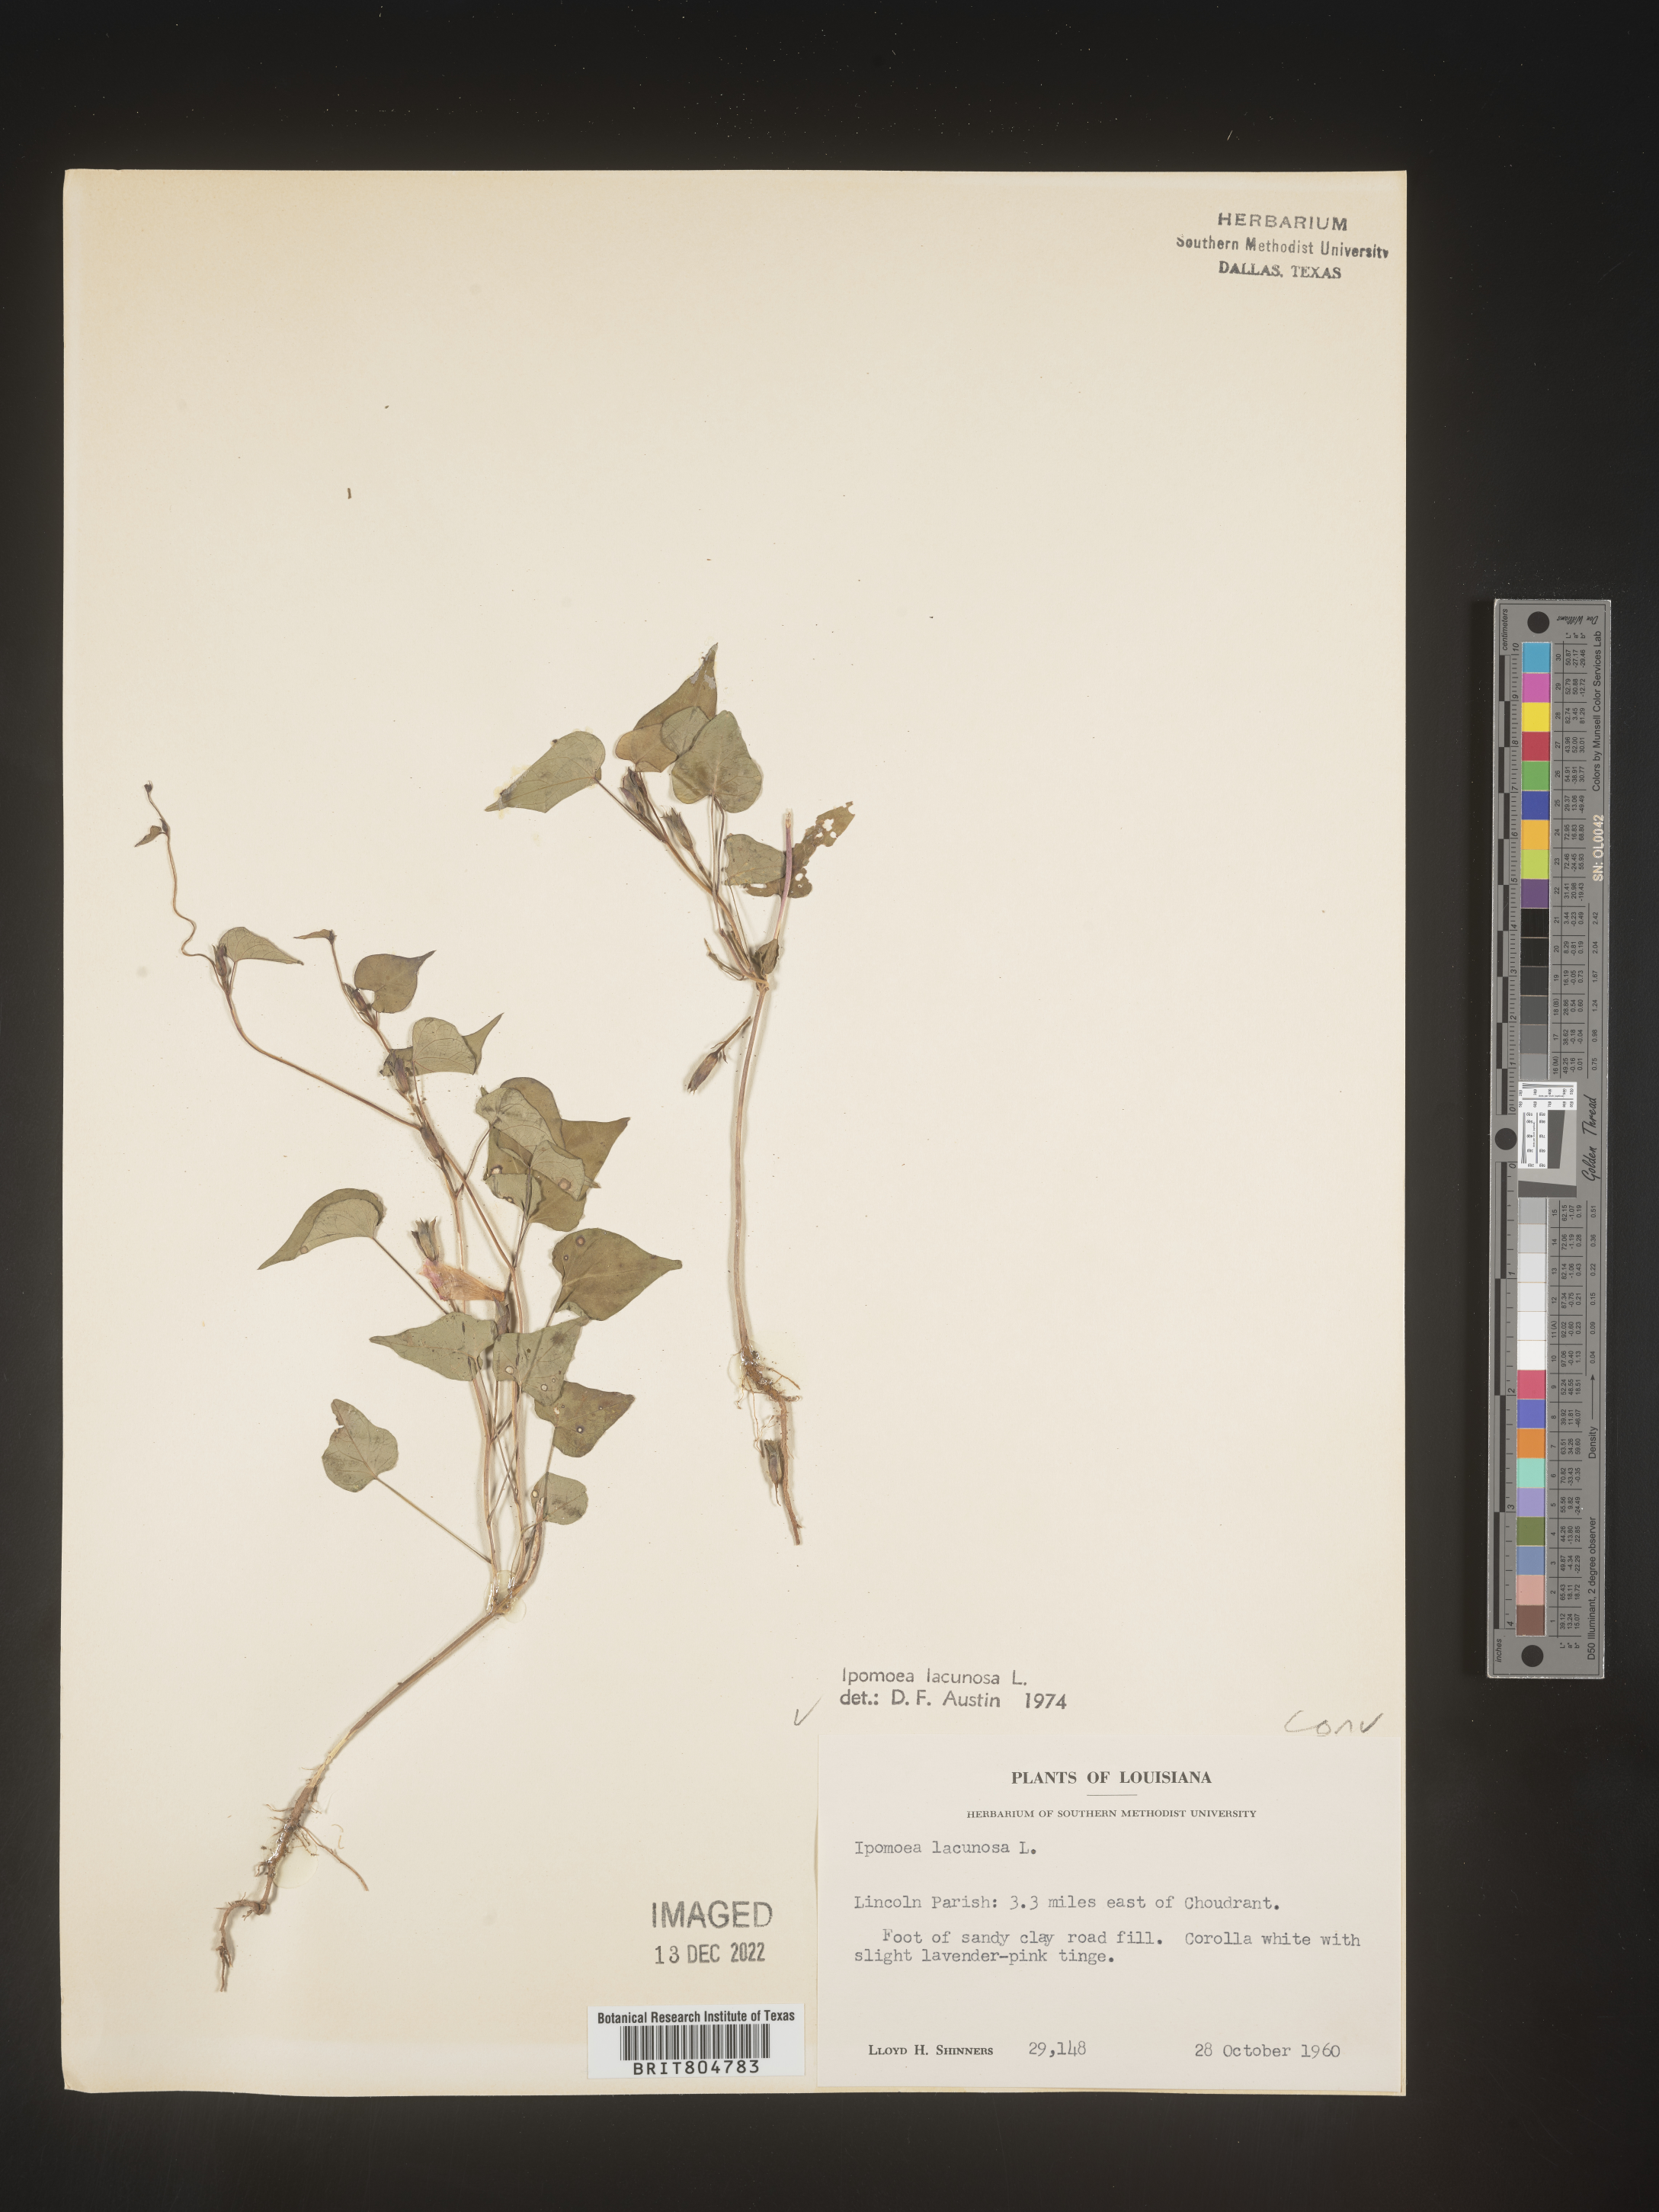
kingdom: Plantae
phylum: Tracheophyta
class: Magnoliopsida
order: Solanales
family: Convolvulaceae
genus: Ipomoea
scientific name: Ipomoea lacunosa
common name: White morning-glory
